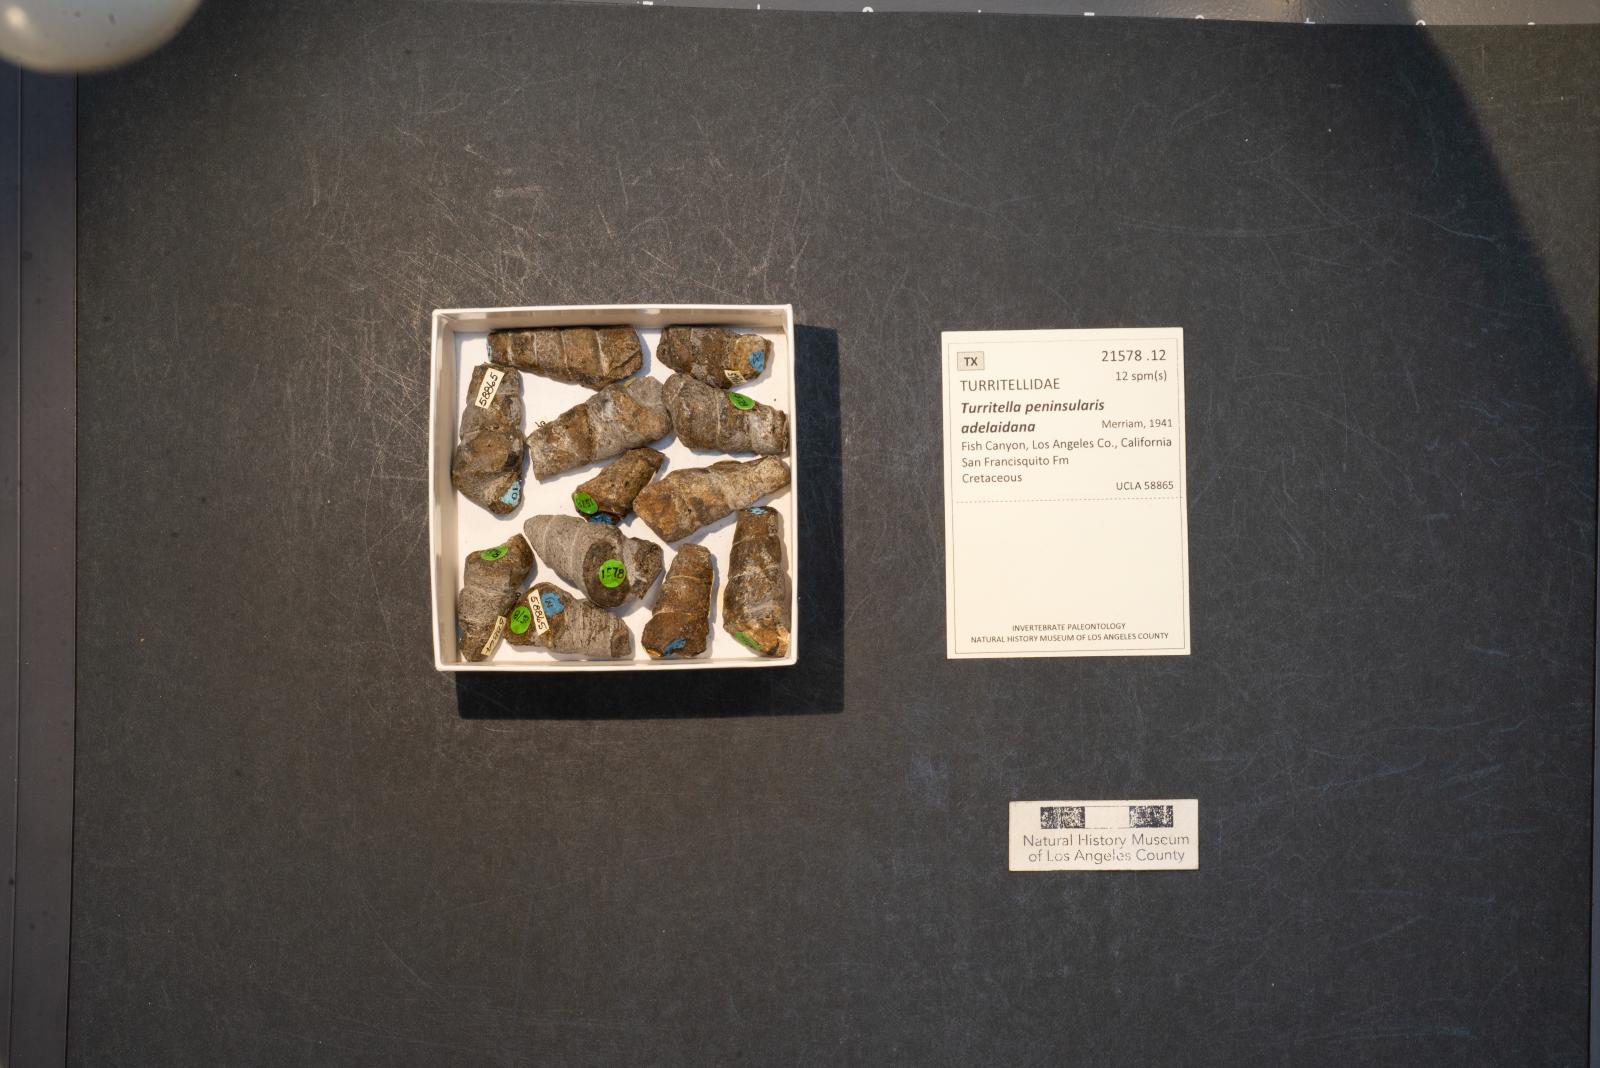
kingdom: Animalia
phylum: Mollusca
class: Gastropoda
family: Turritellidae
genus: Turritella
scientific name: Turritella peninsularis
